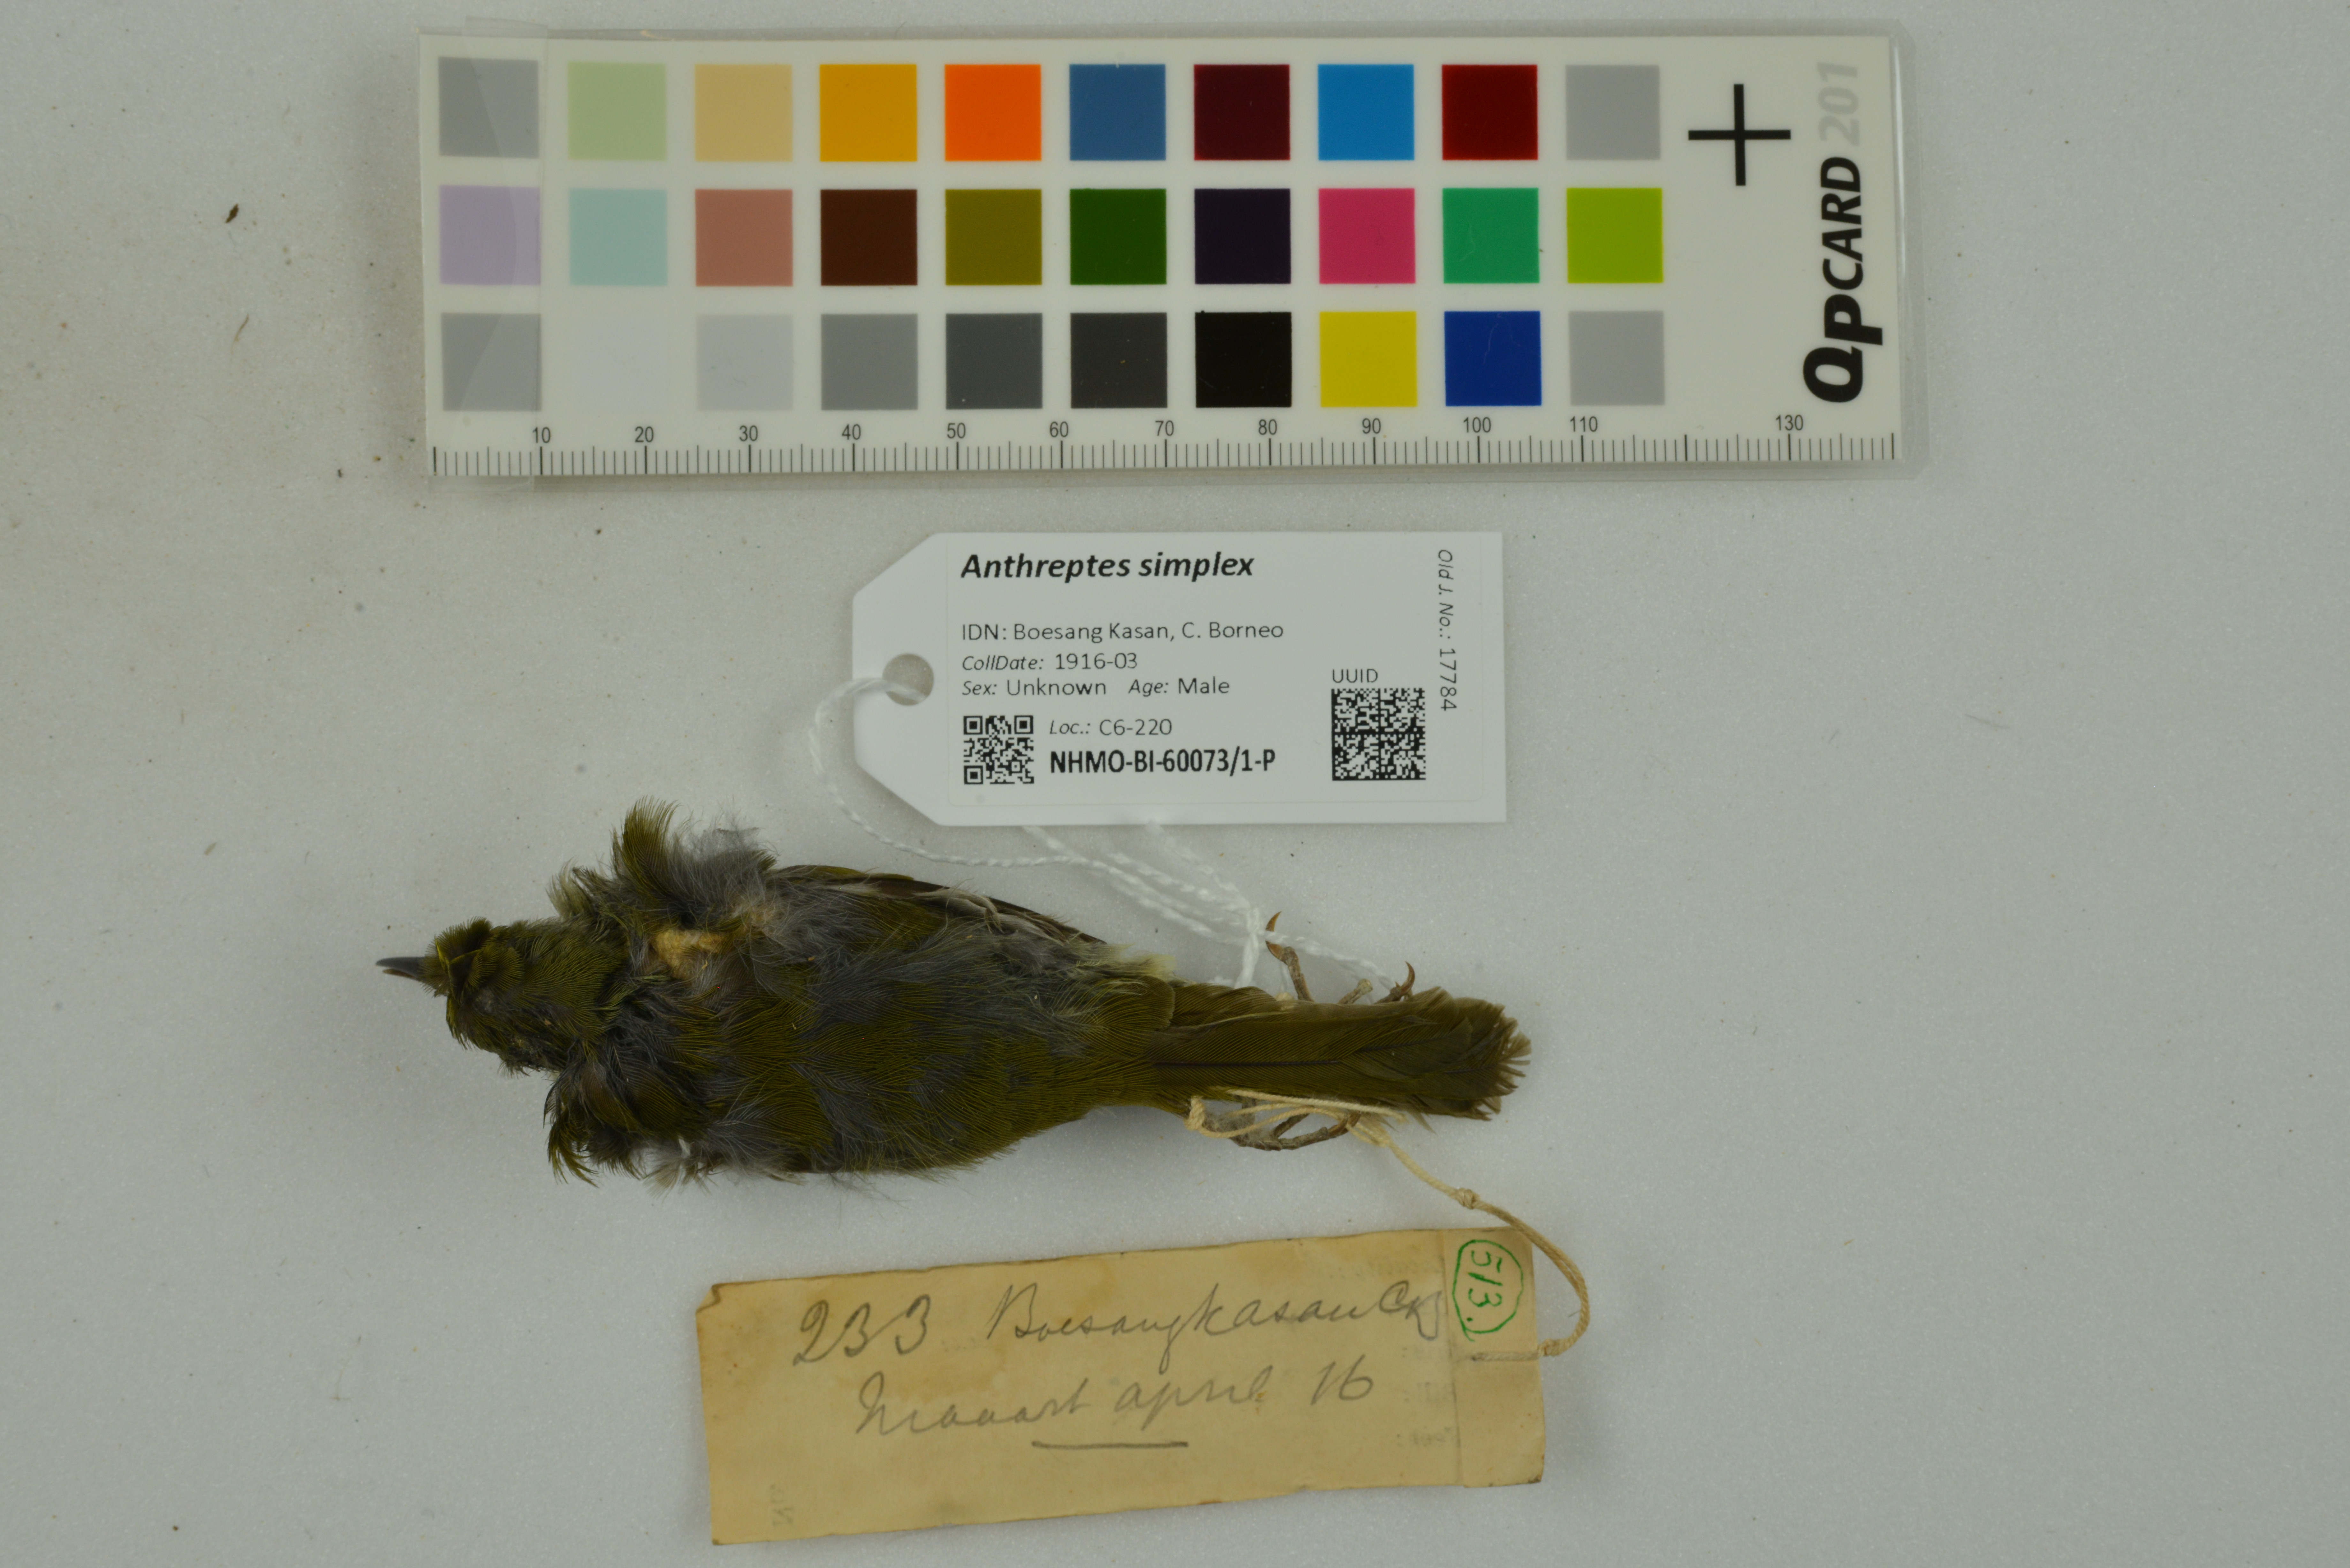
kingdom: Animalia
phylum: Chordata
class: Aves
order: Passeriformes
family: Nectariniidae
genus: Anthreptes
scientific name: Anthreptes simplex
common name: Plain sunbird
